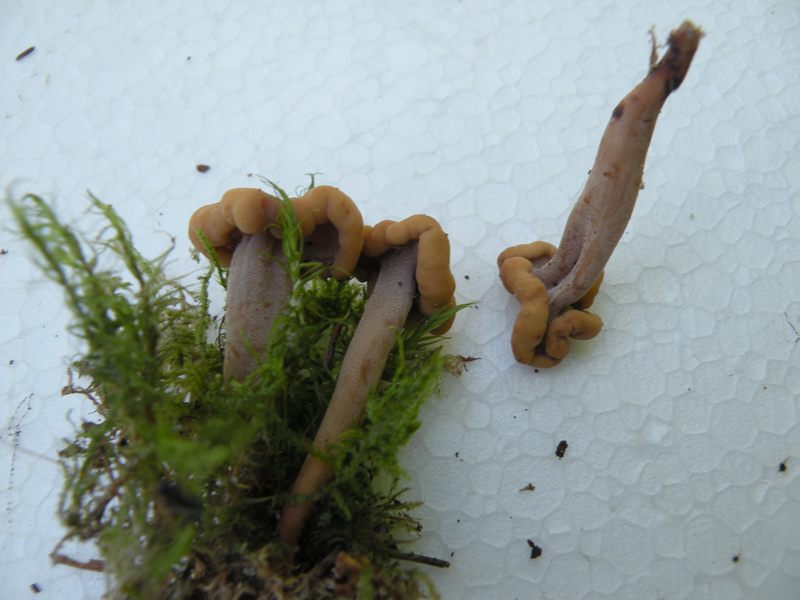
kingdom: Fungi
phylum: Ascomycota
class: Leotiomycetes
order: Rhytismatales
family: Cudoniaceae
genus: Cudonia
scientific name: Cudonia circinans
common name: hekserings-hjelmmorkel
